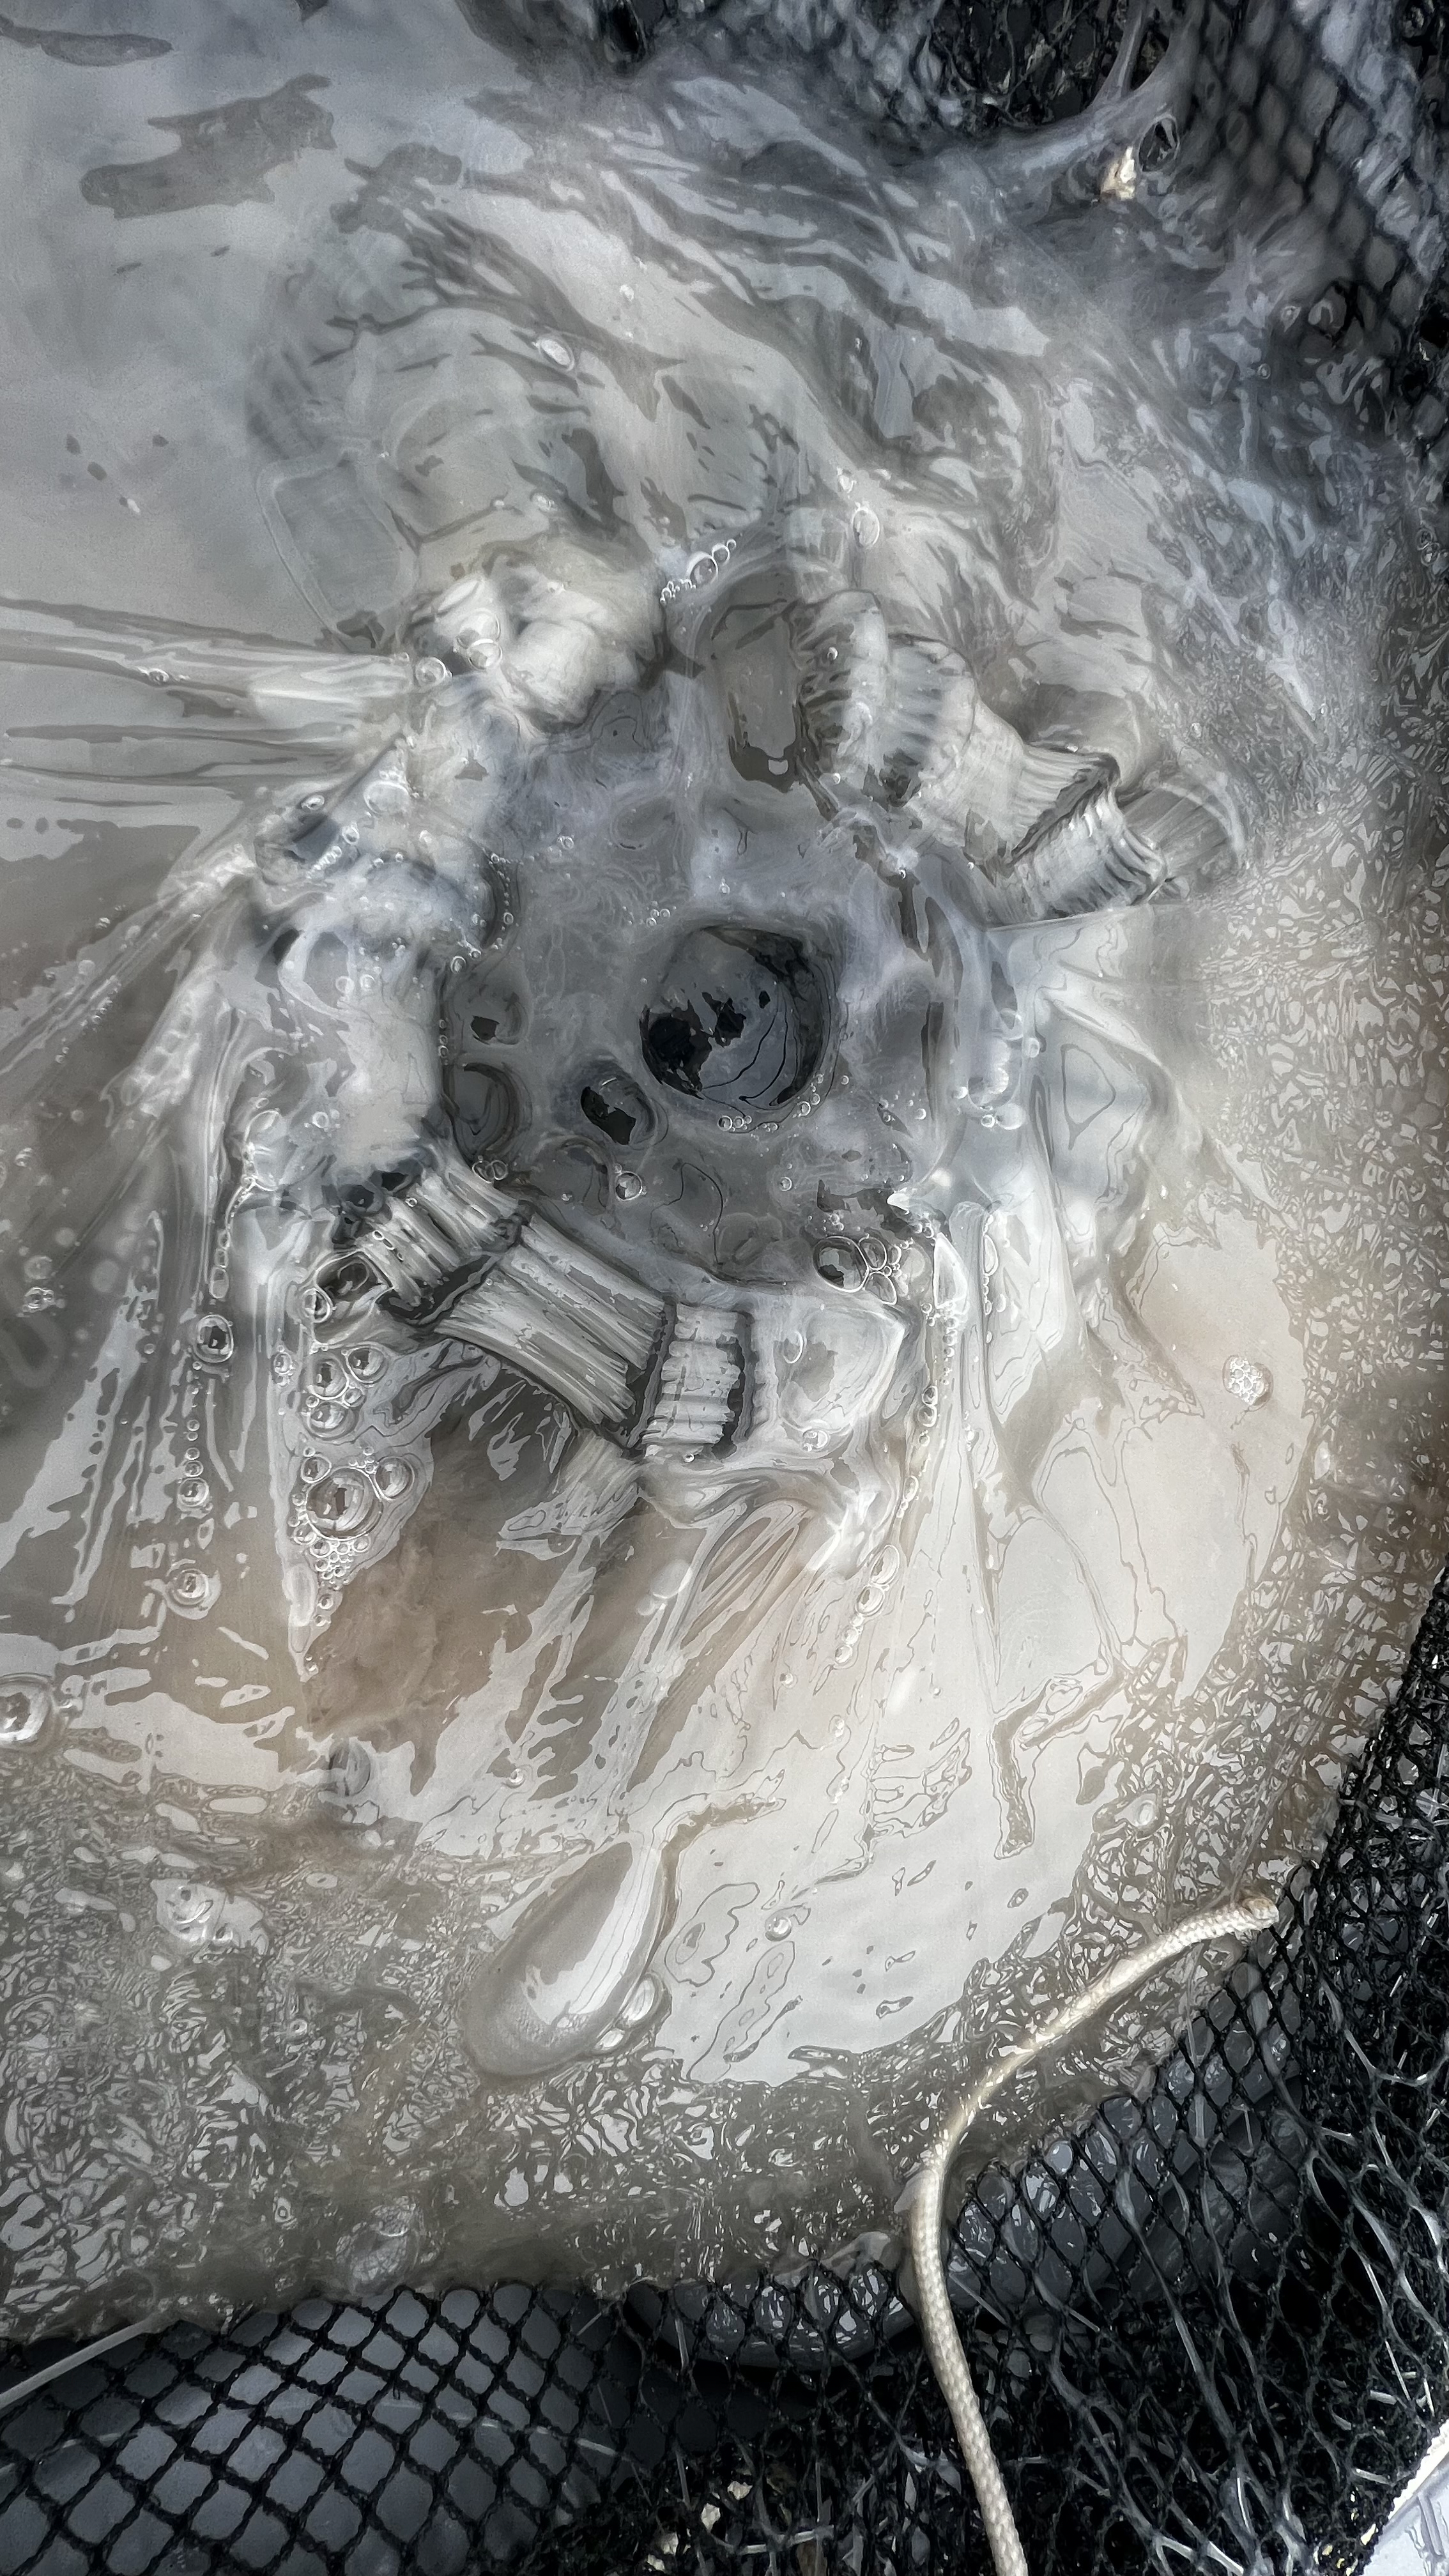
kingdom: Animalia
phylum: Cnidaria
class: Scyphozoa
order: Semaeostomeae
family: Cyaneidae
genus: Cyanea
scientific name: Cyanea nozakii
